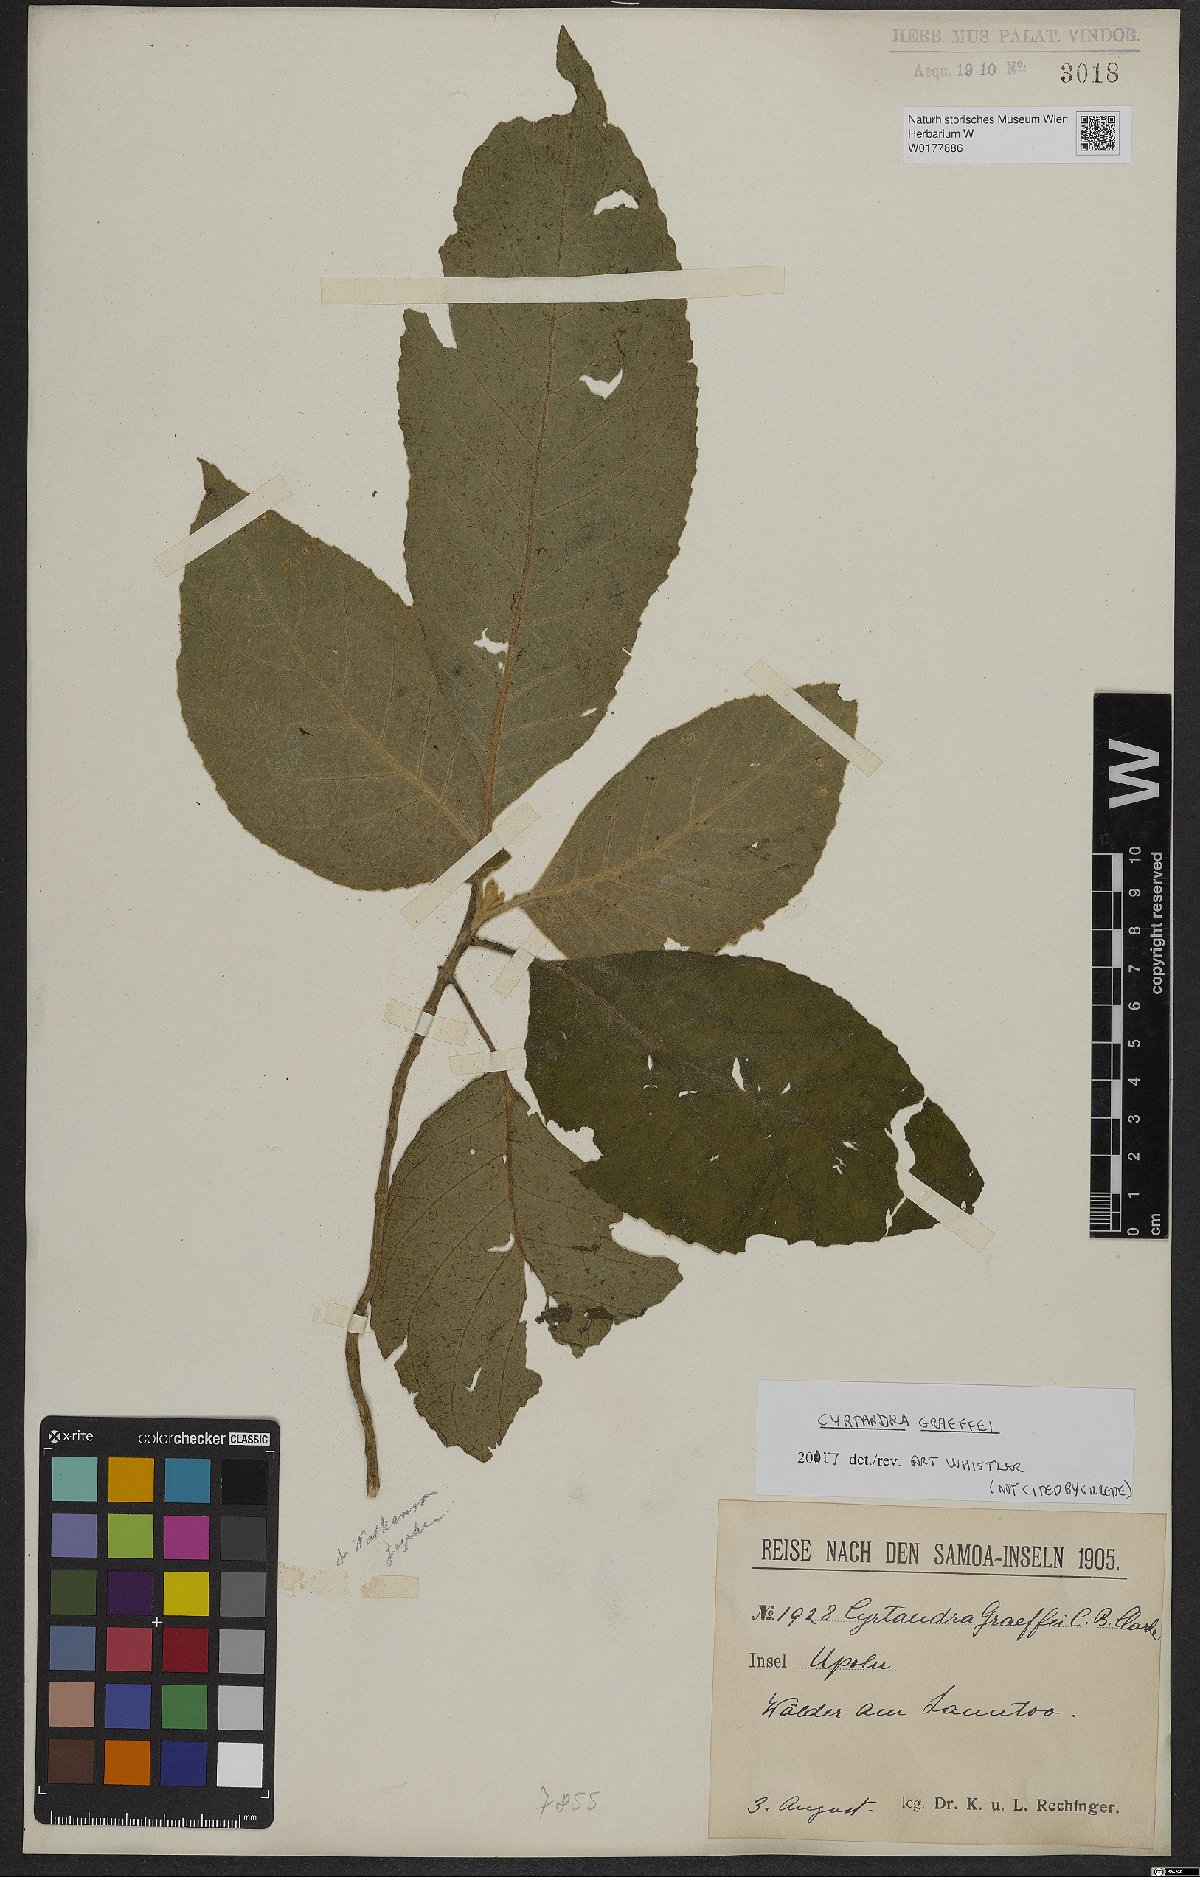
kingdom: Plantae
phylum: Tracheophyta
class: Magnoliopsida
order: Lamiales
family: Gesneriaceae
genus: Cyrtandra
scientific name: Cyrtandra graeffei
